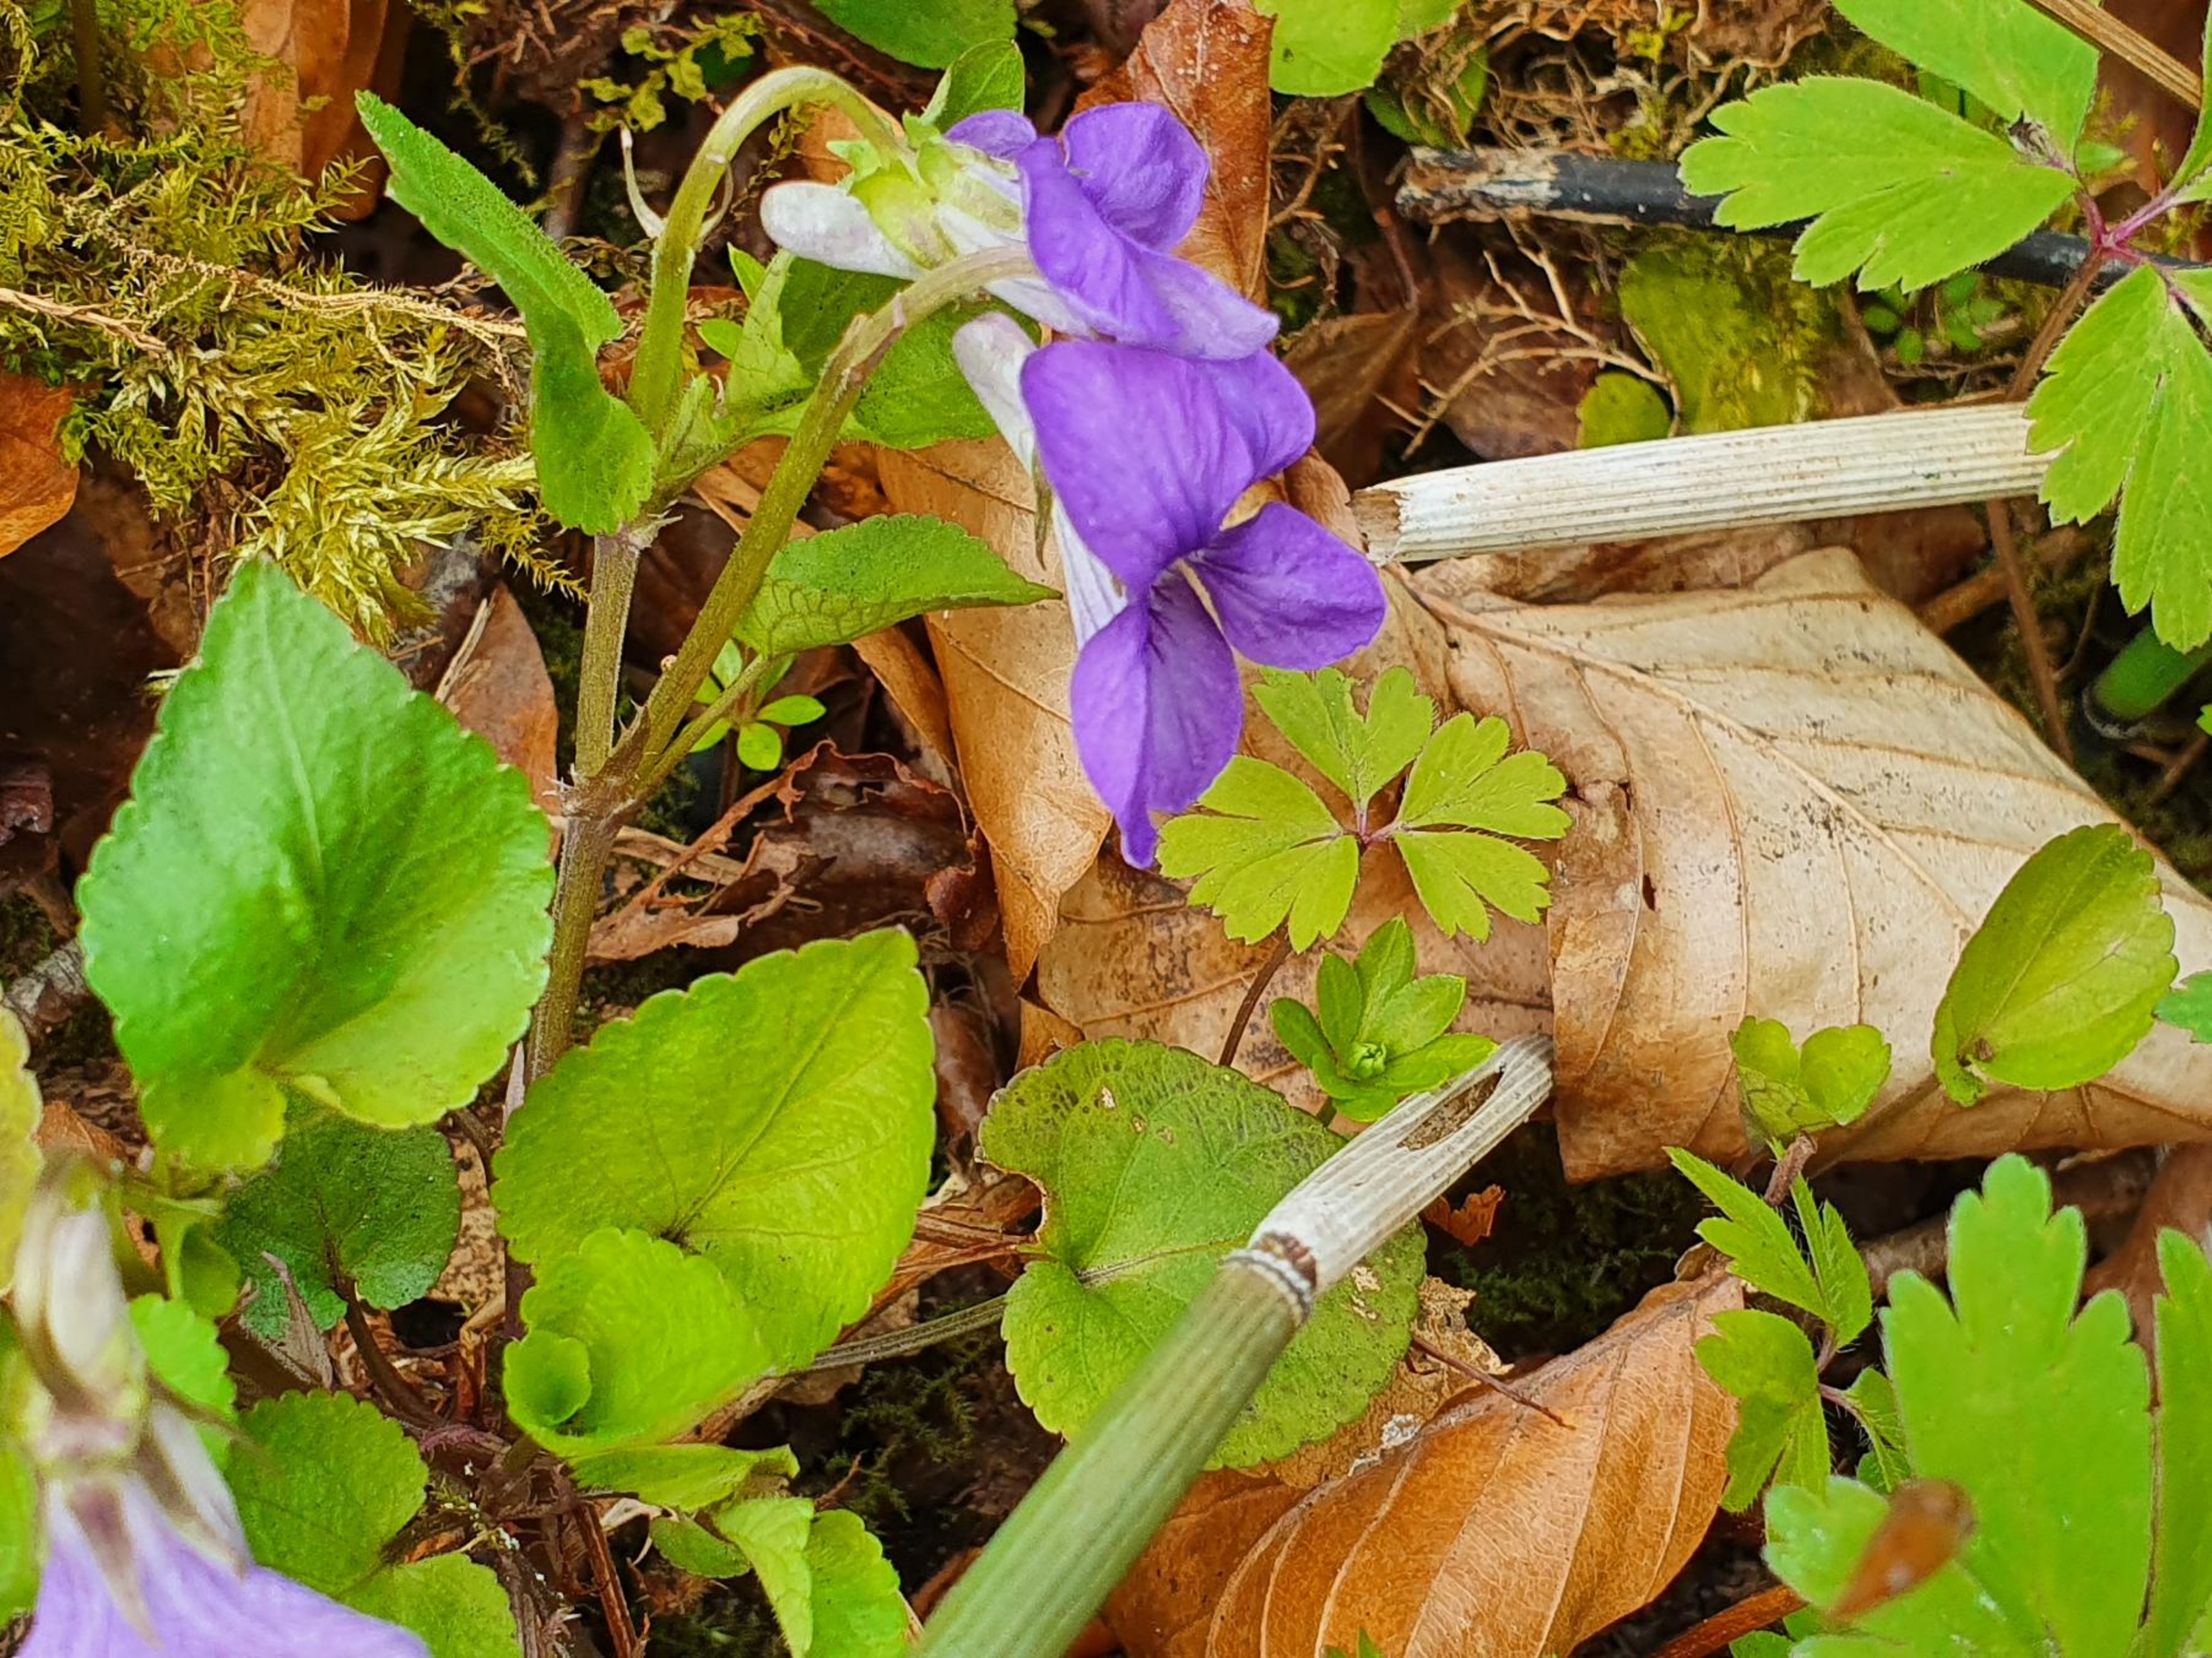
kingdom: Plantae
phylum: Tracheophyta
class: Magnoliopsida
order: Malpighiales
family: Violaceae
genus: Viola
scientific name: Viola riviniana
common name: Krat-viol
